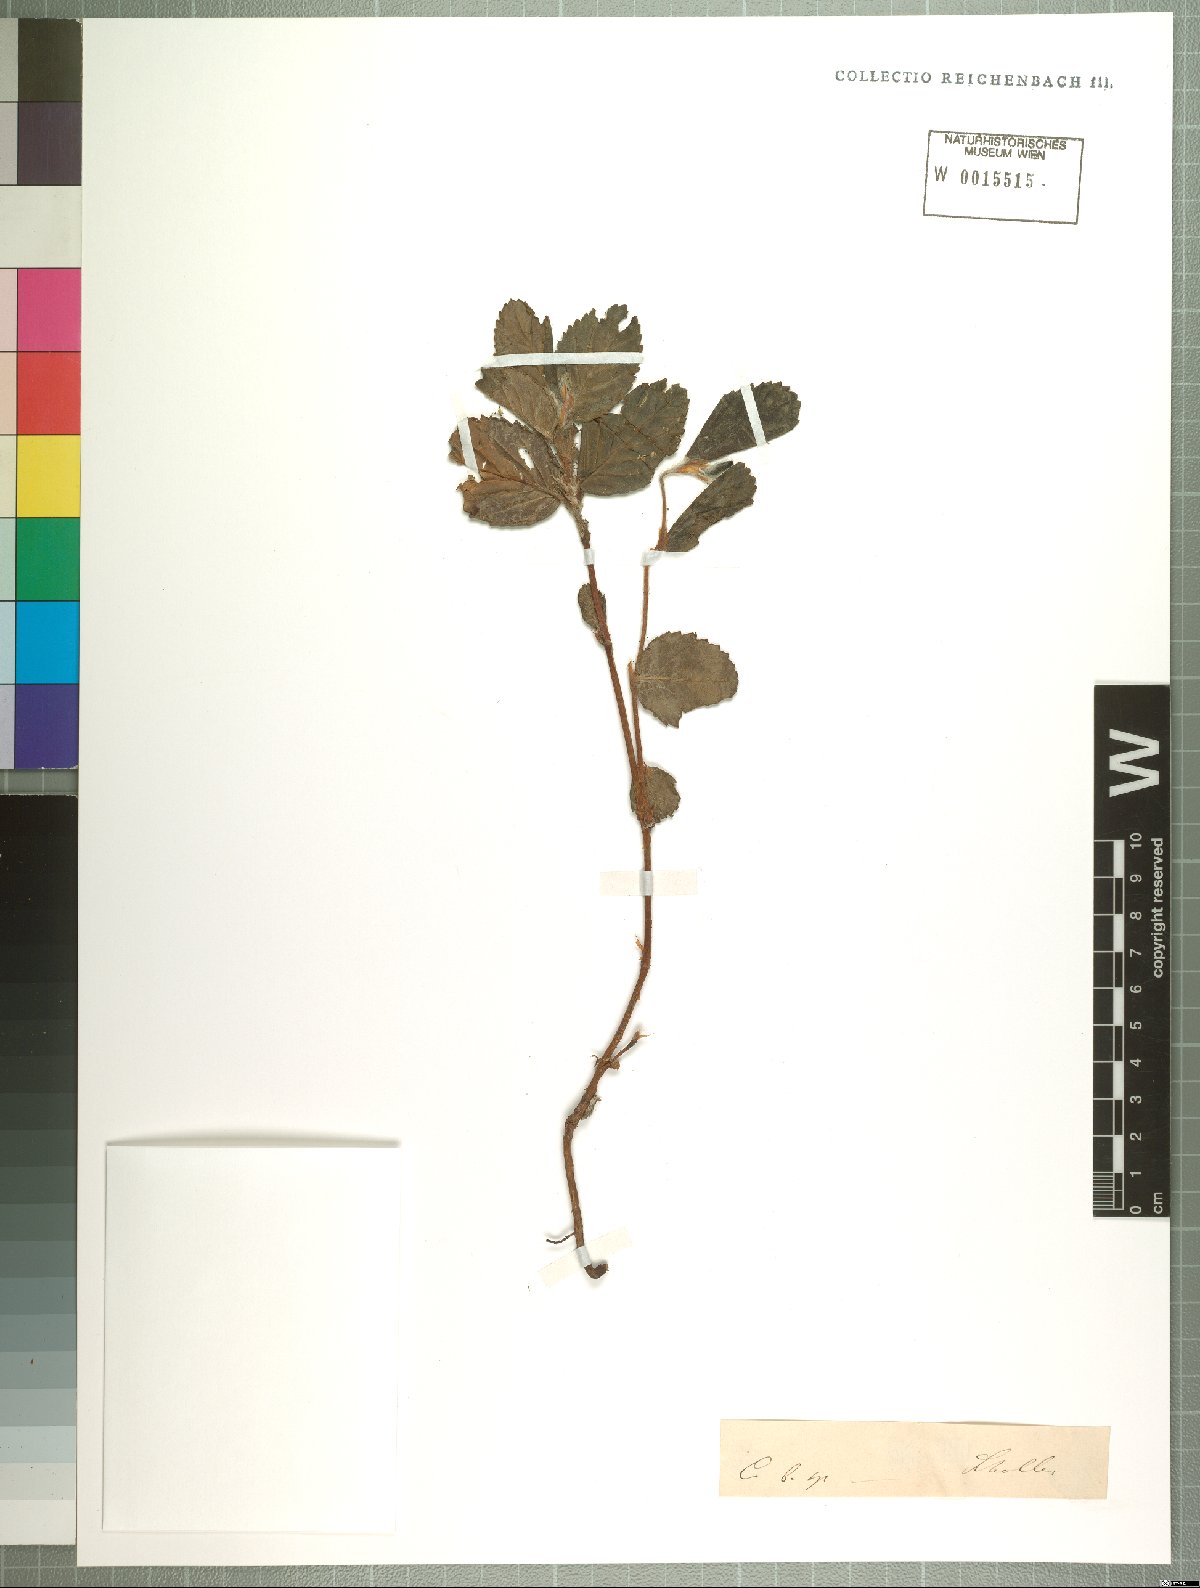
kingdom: Plantae
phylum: Tracheophyta
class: Magnoliopsida
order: Rosales
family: Rosaceae
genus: Cliffortia
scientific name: Cliffortia odorata
